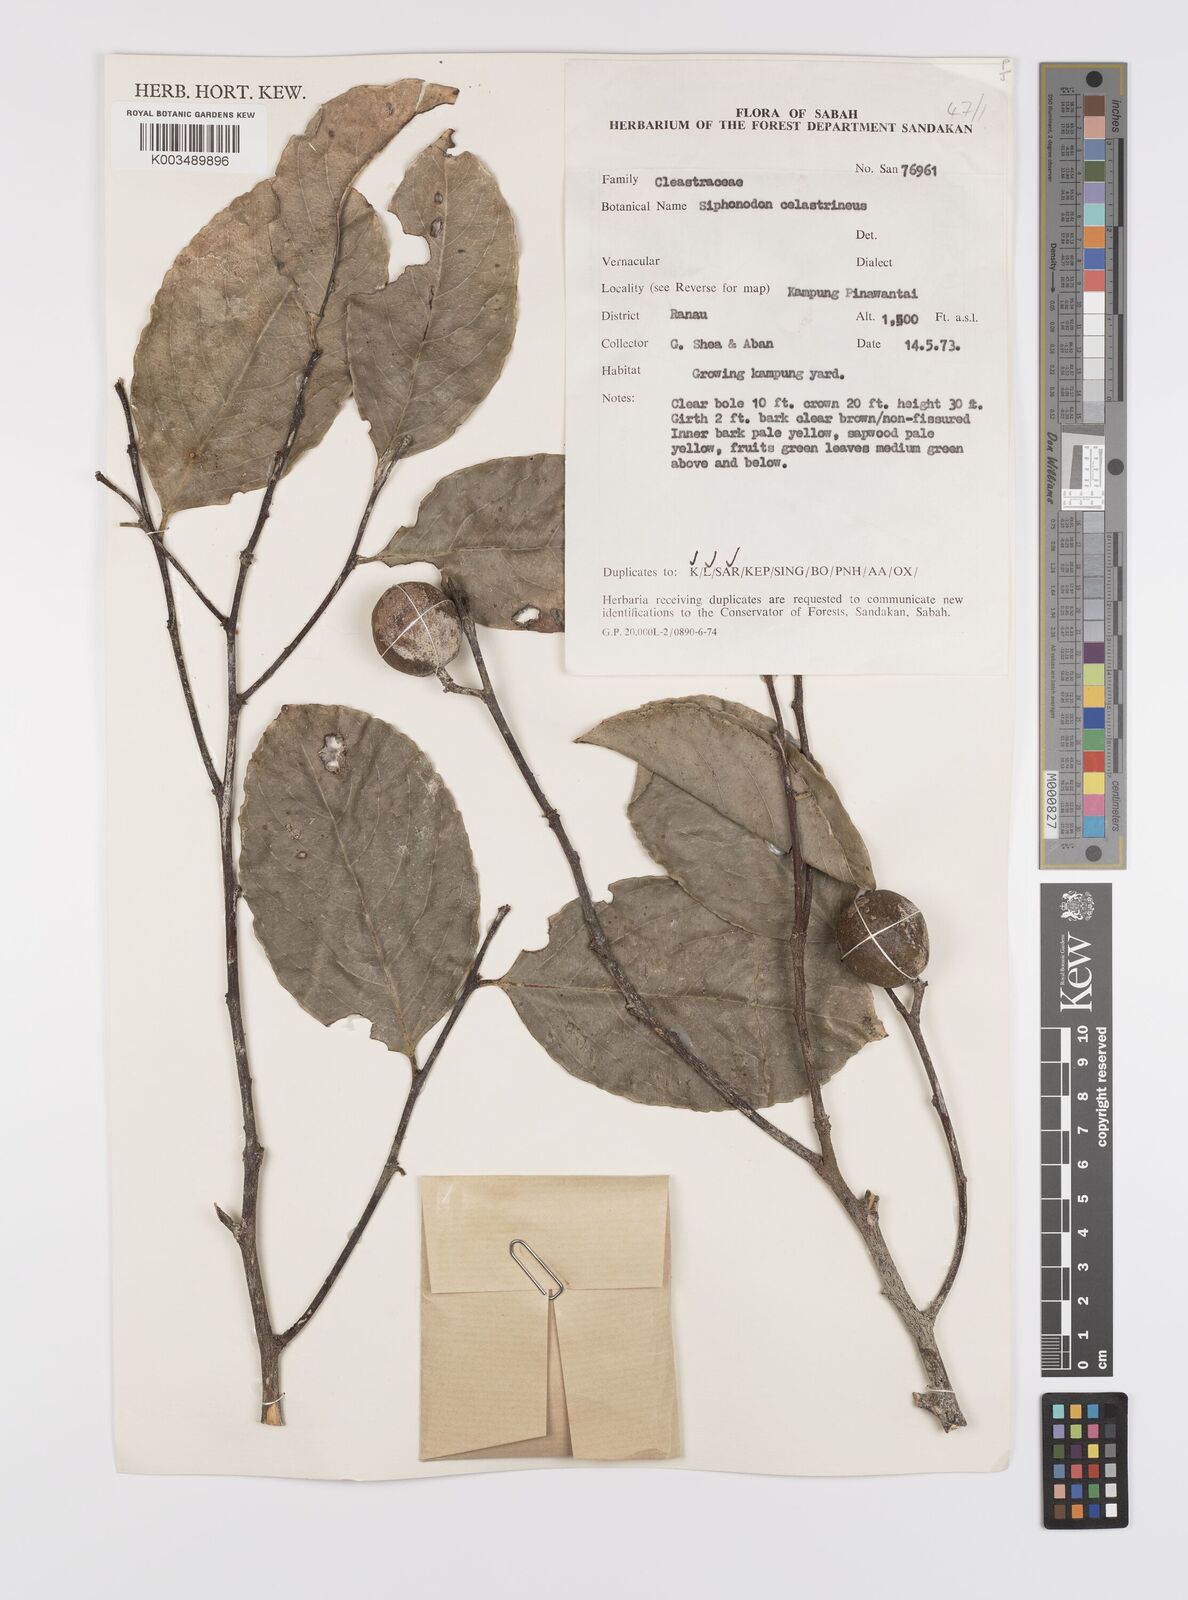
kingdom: Plantae
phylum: Tracheophyta
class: Magnoliopsida
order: Celastrales
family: Celastraceae
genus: Siphonodon
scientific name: Siphonodon celastrineus
